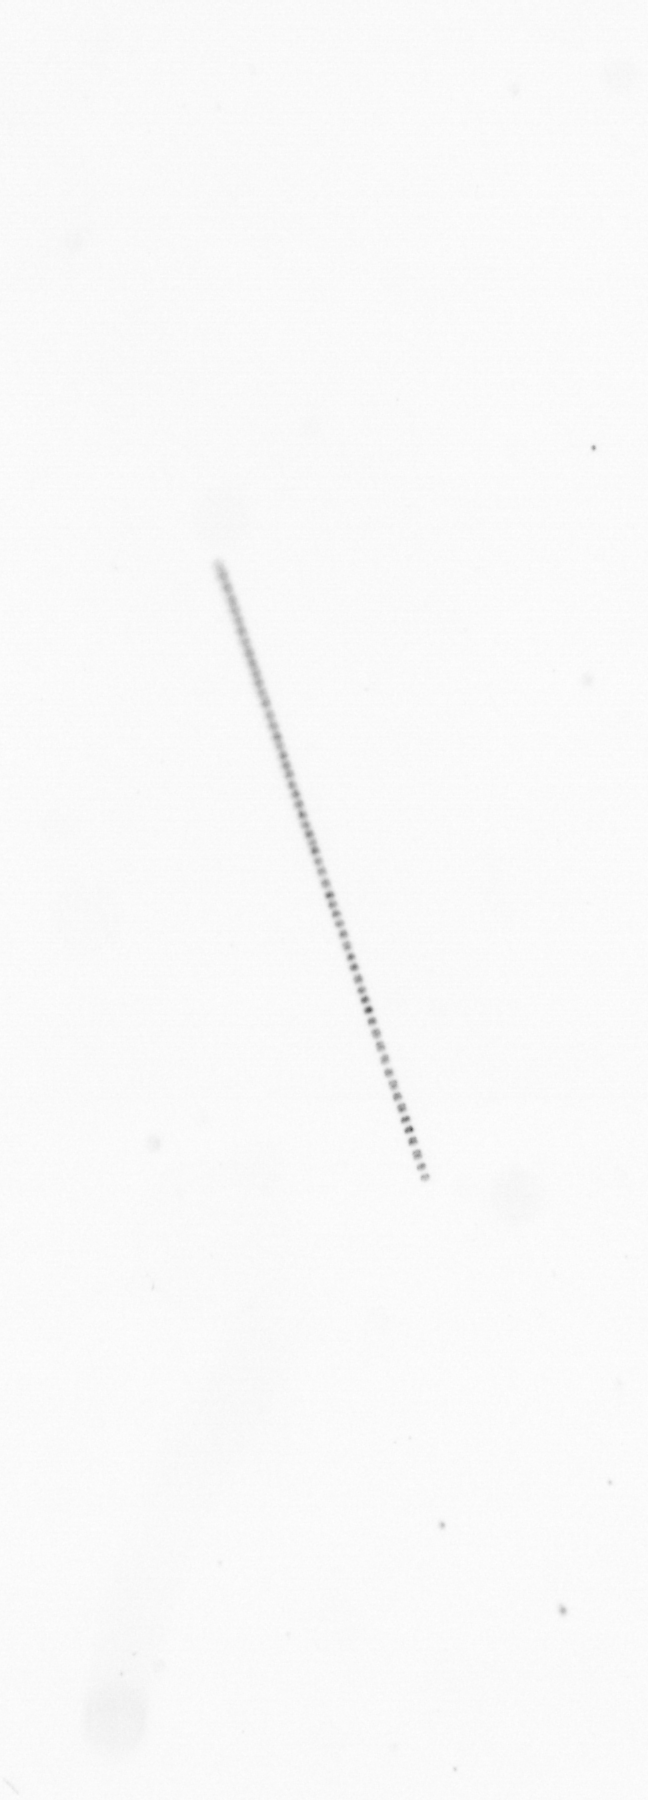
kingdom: Chromista
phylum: Ochrophyta
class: Bacillariophyceae
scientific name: Bacillariophyceae
